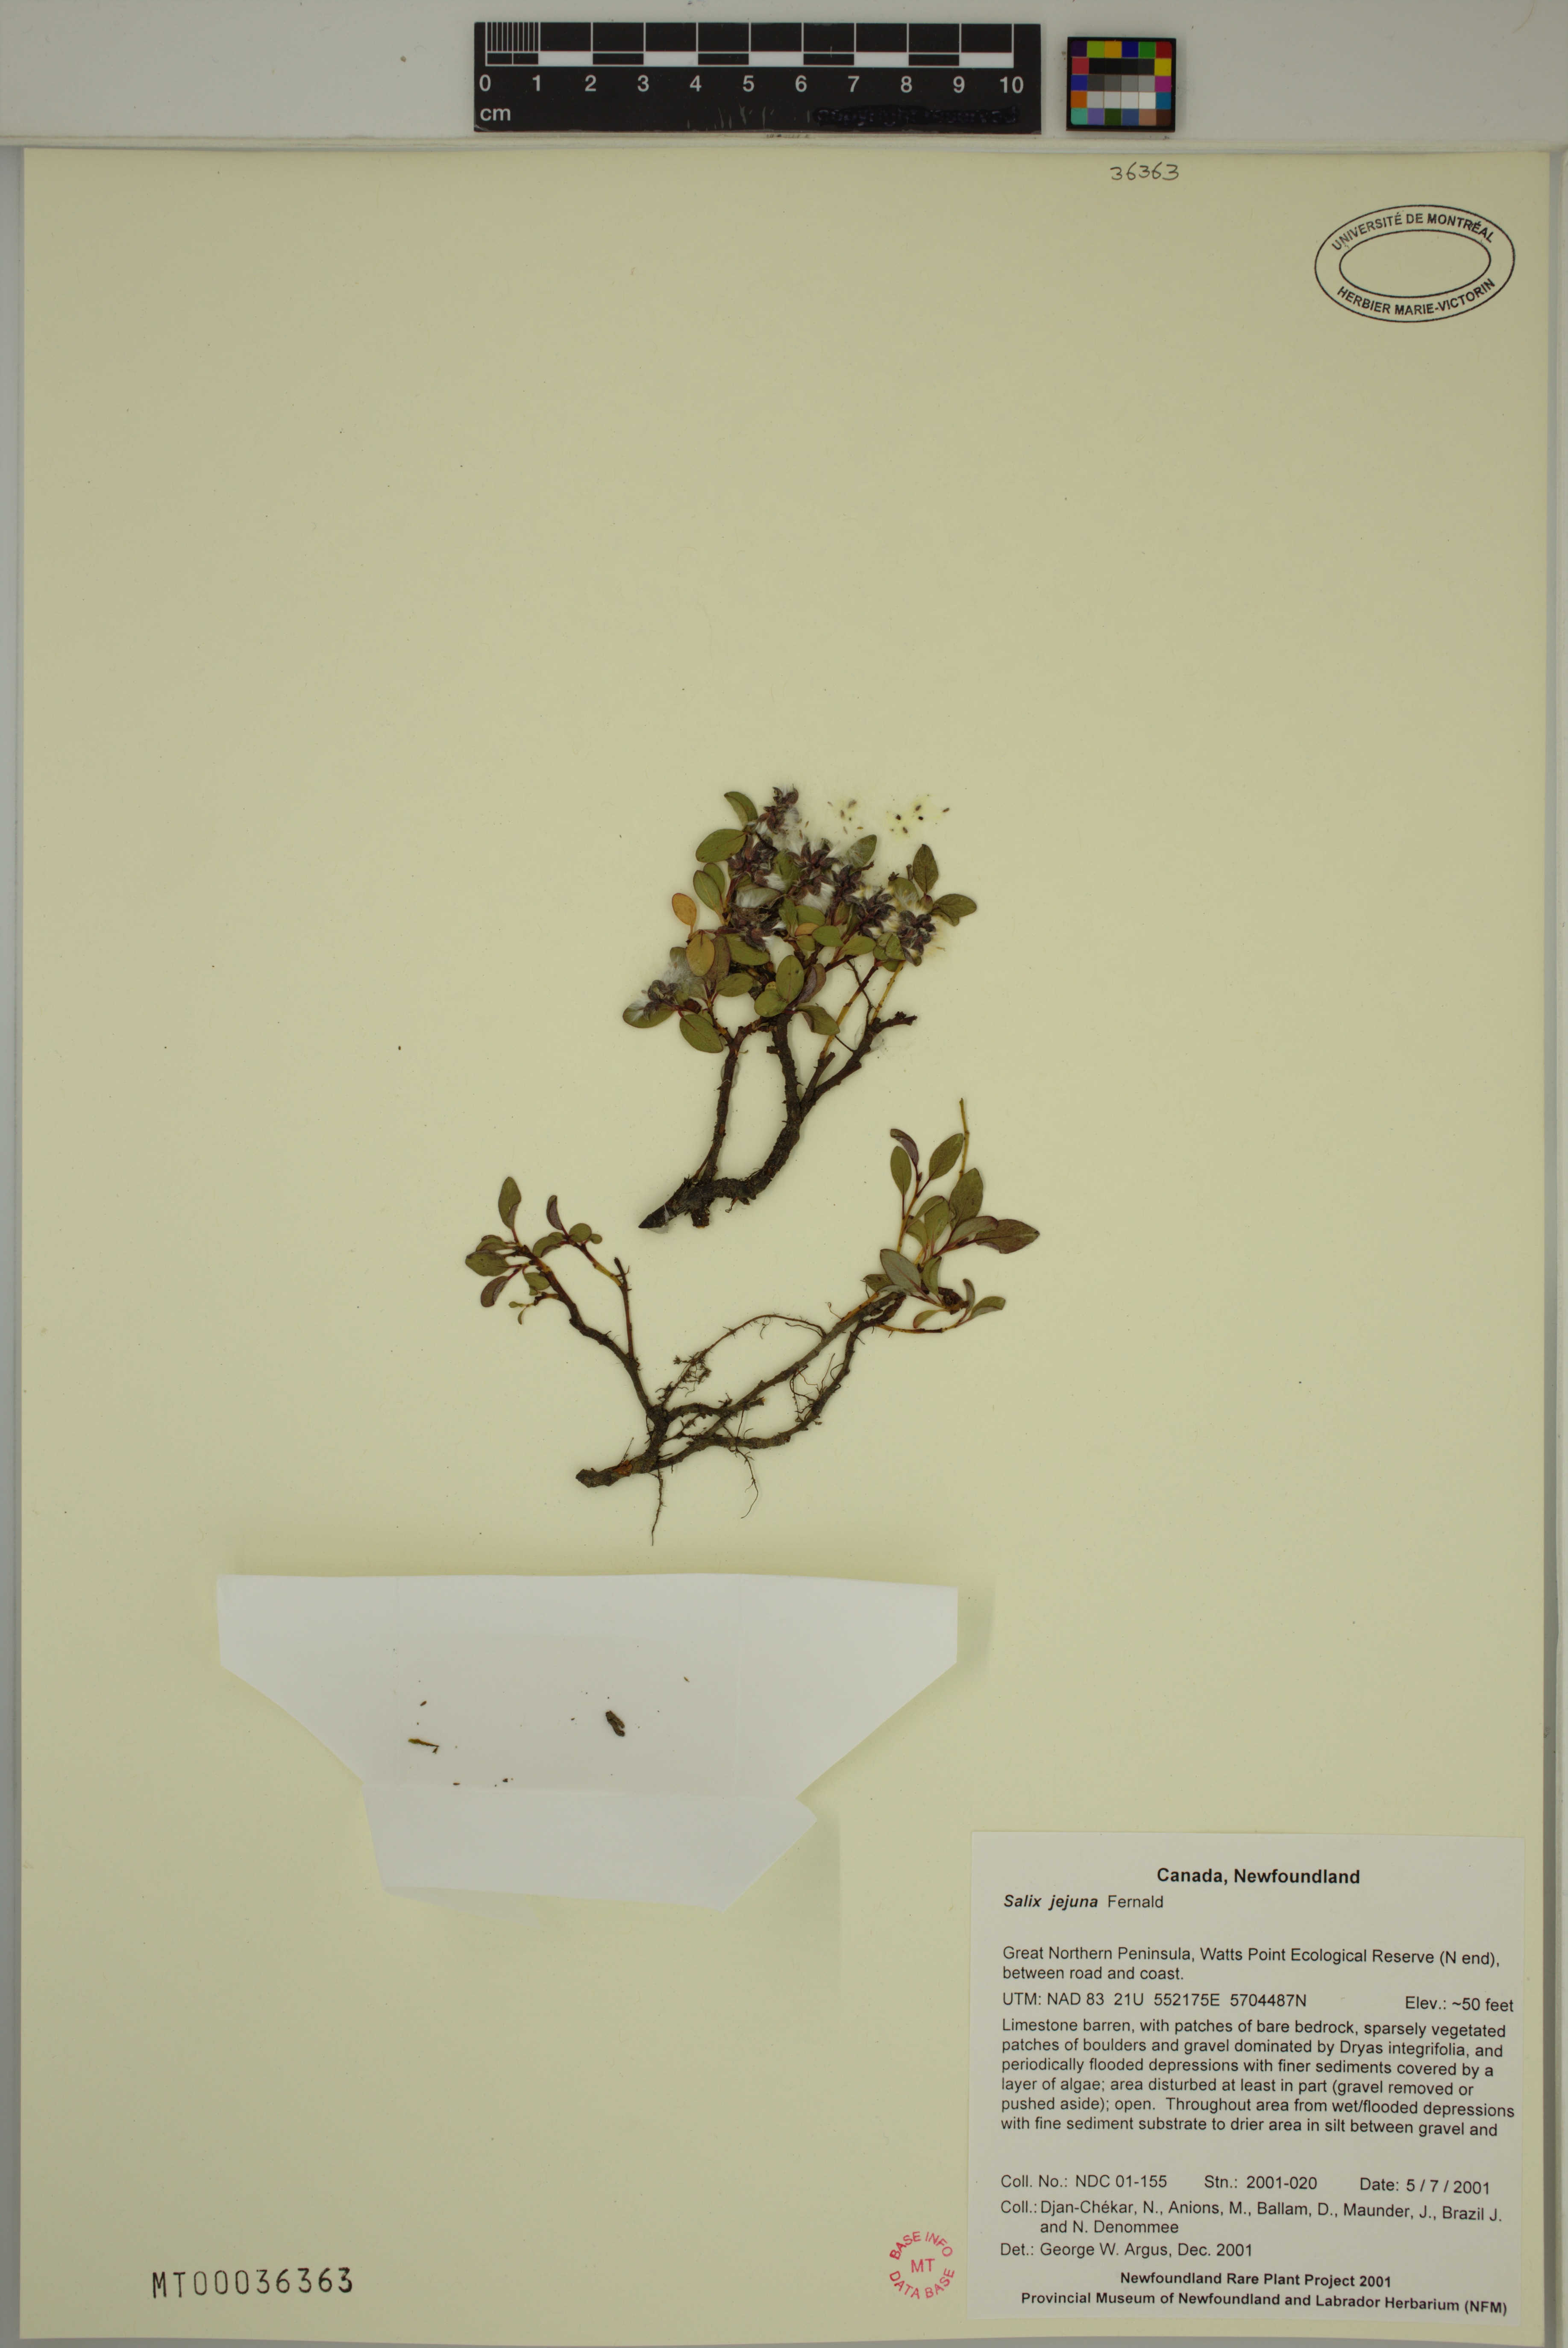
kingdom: Plantae
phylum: Tracheophyta
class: Magnoliopsida
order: Malpighiales
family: Salicaceae
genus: Salix
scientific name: Salix jejuna
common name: Belle isle dwarf willow
